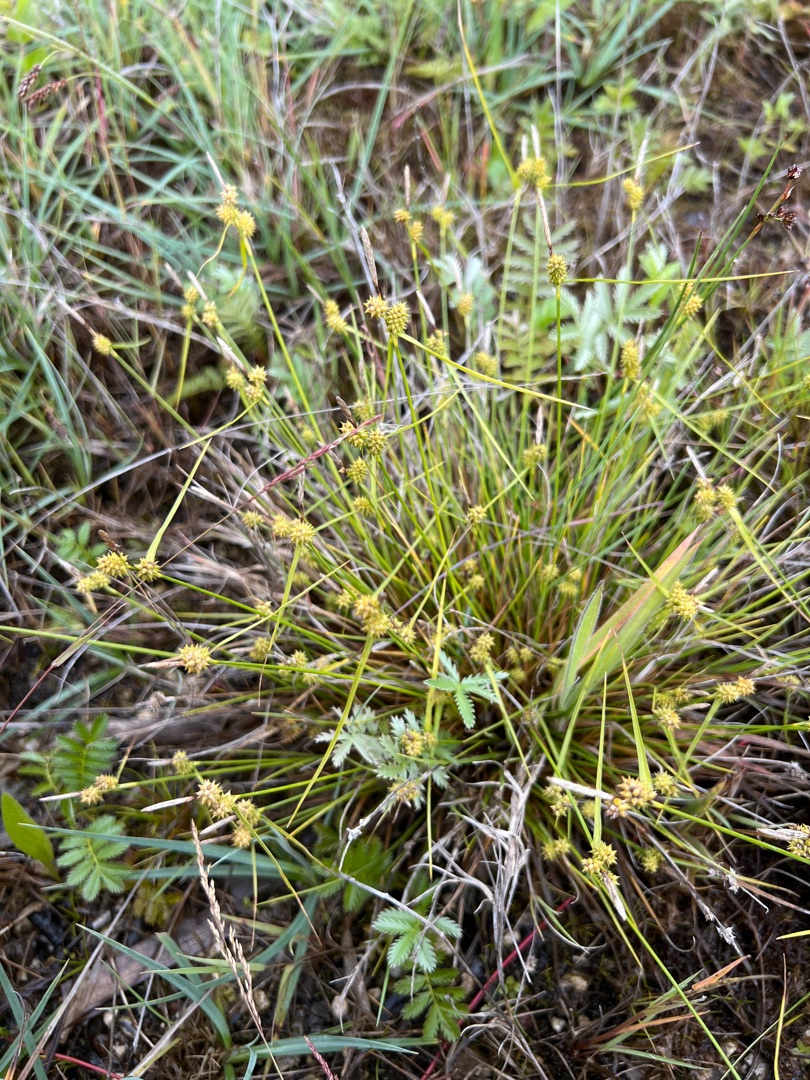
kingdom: Plantae
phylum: Tracheophyta
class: Liliopsida
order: Poales
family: Cyperaceae
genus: Carex
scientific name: Carex demissa
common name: Grøn star
